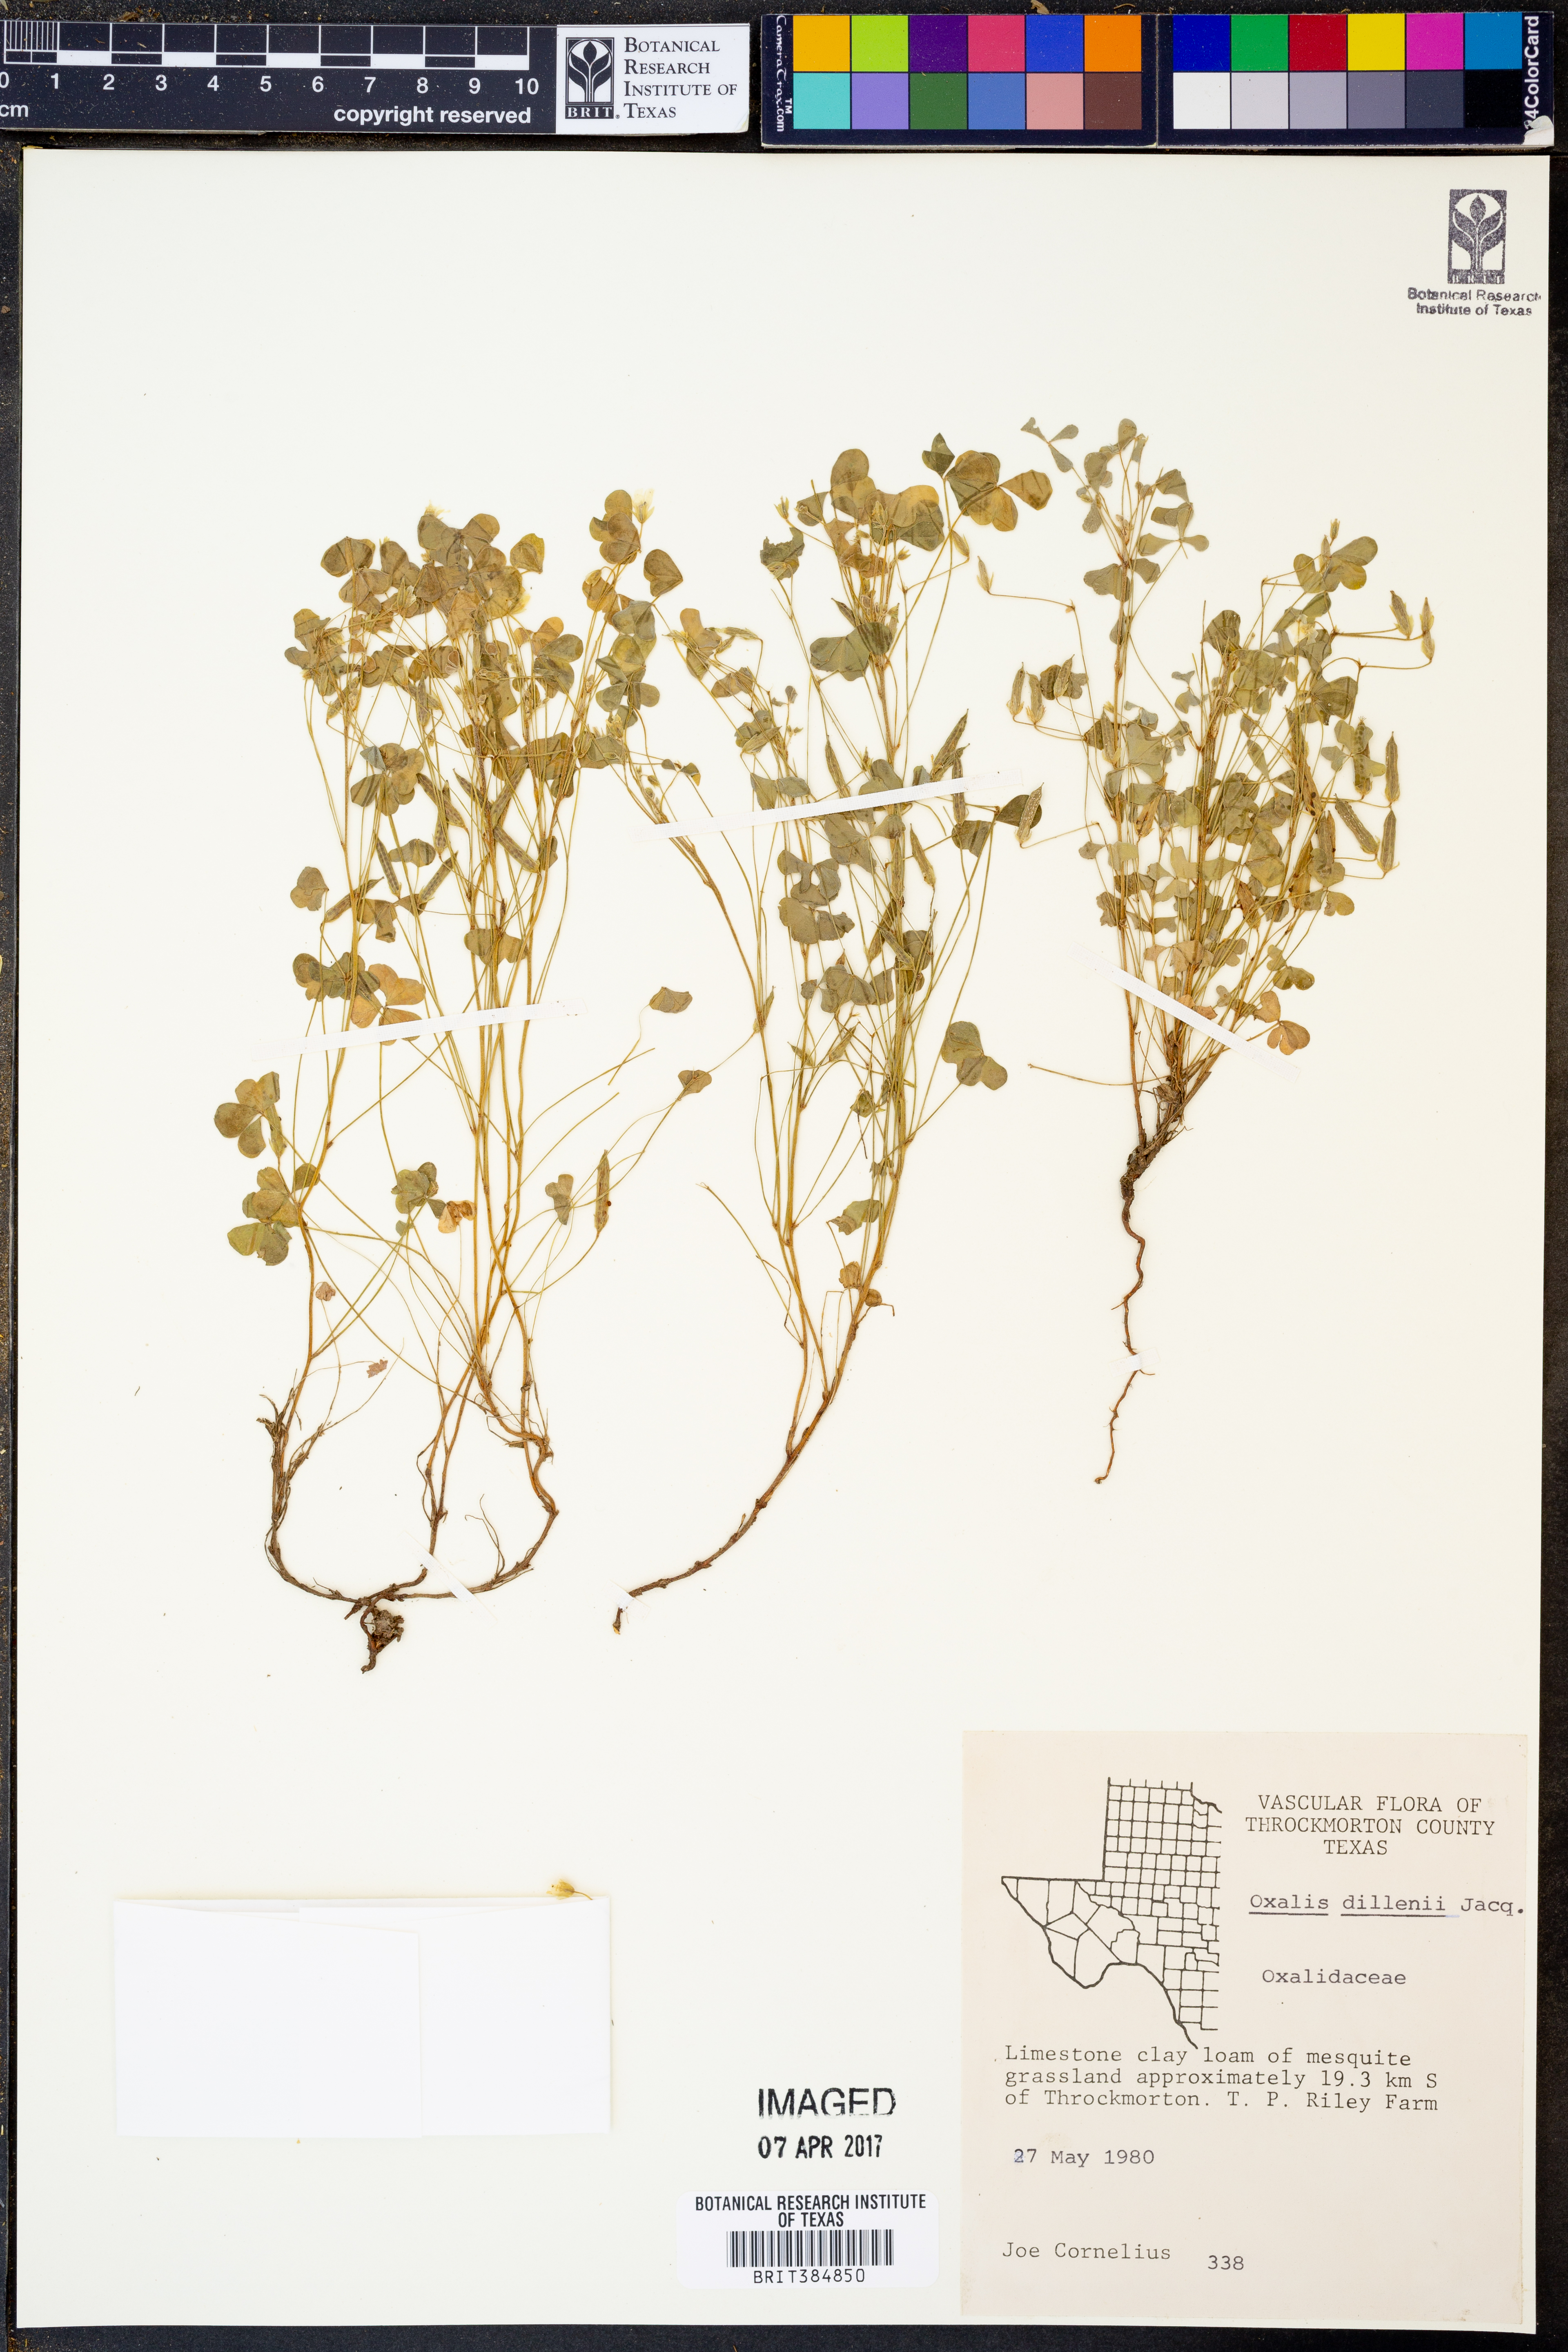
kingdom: Plantae
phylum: Tracheophyta
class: Magnoliopsida
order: Oxalidales
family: Oxalidaceae
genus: Oxalis
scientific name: Oxalis dillenii
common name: Sussex yellow-sorrel
